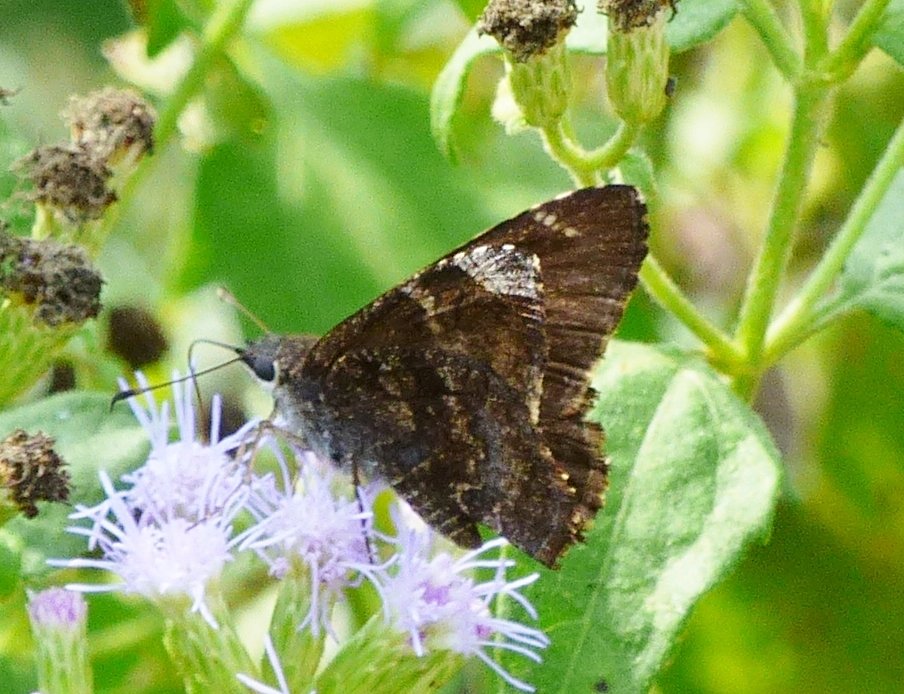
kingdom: Animalia
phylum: Arthropoda
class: Insecta
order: Lepidoptera
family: Hesperiidae
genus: Caicella
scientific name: Caicella calchas
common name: Mimosa Skipper
